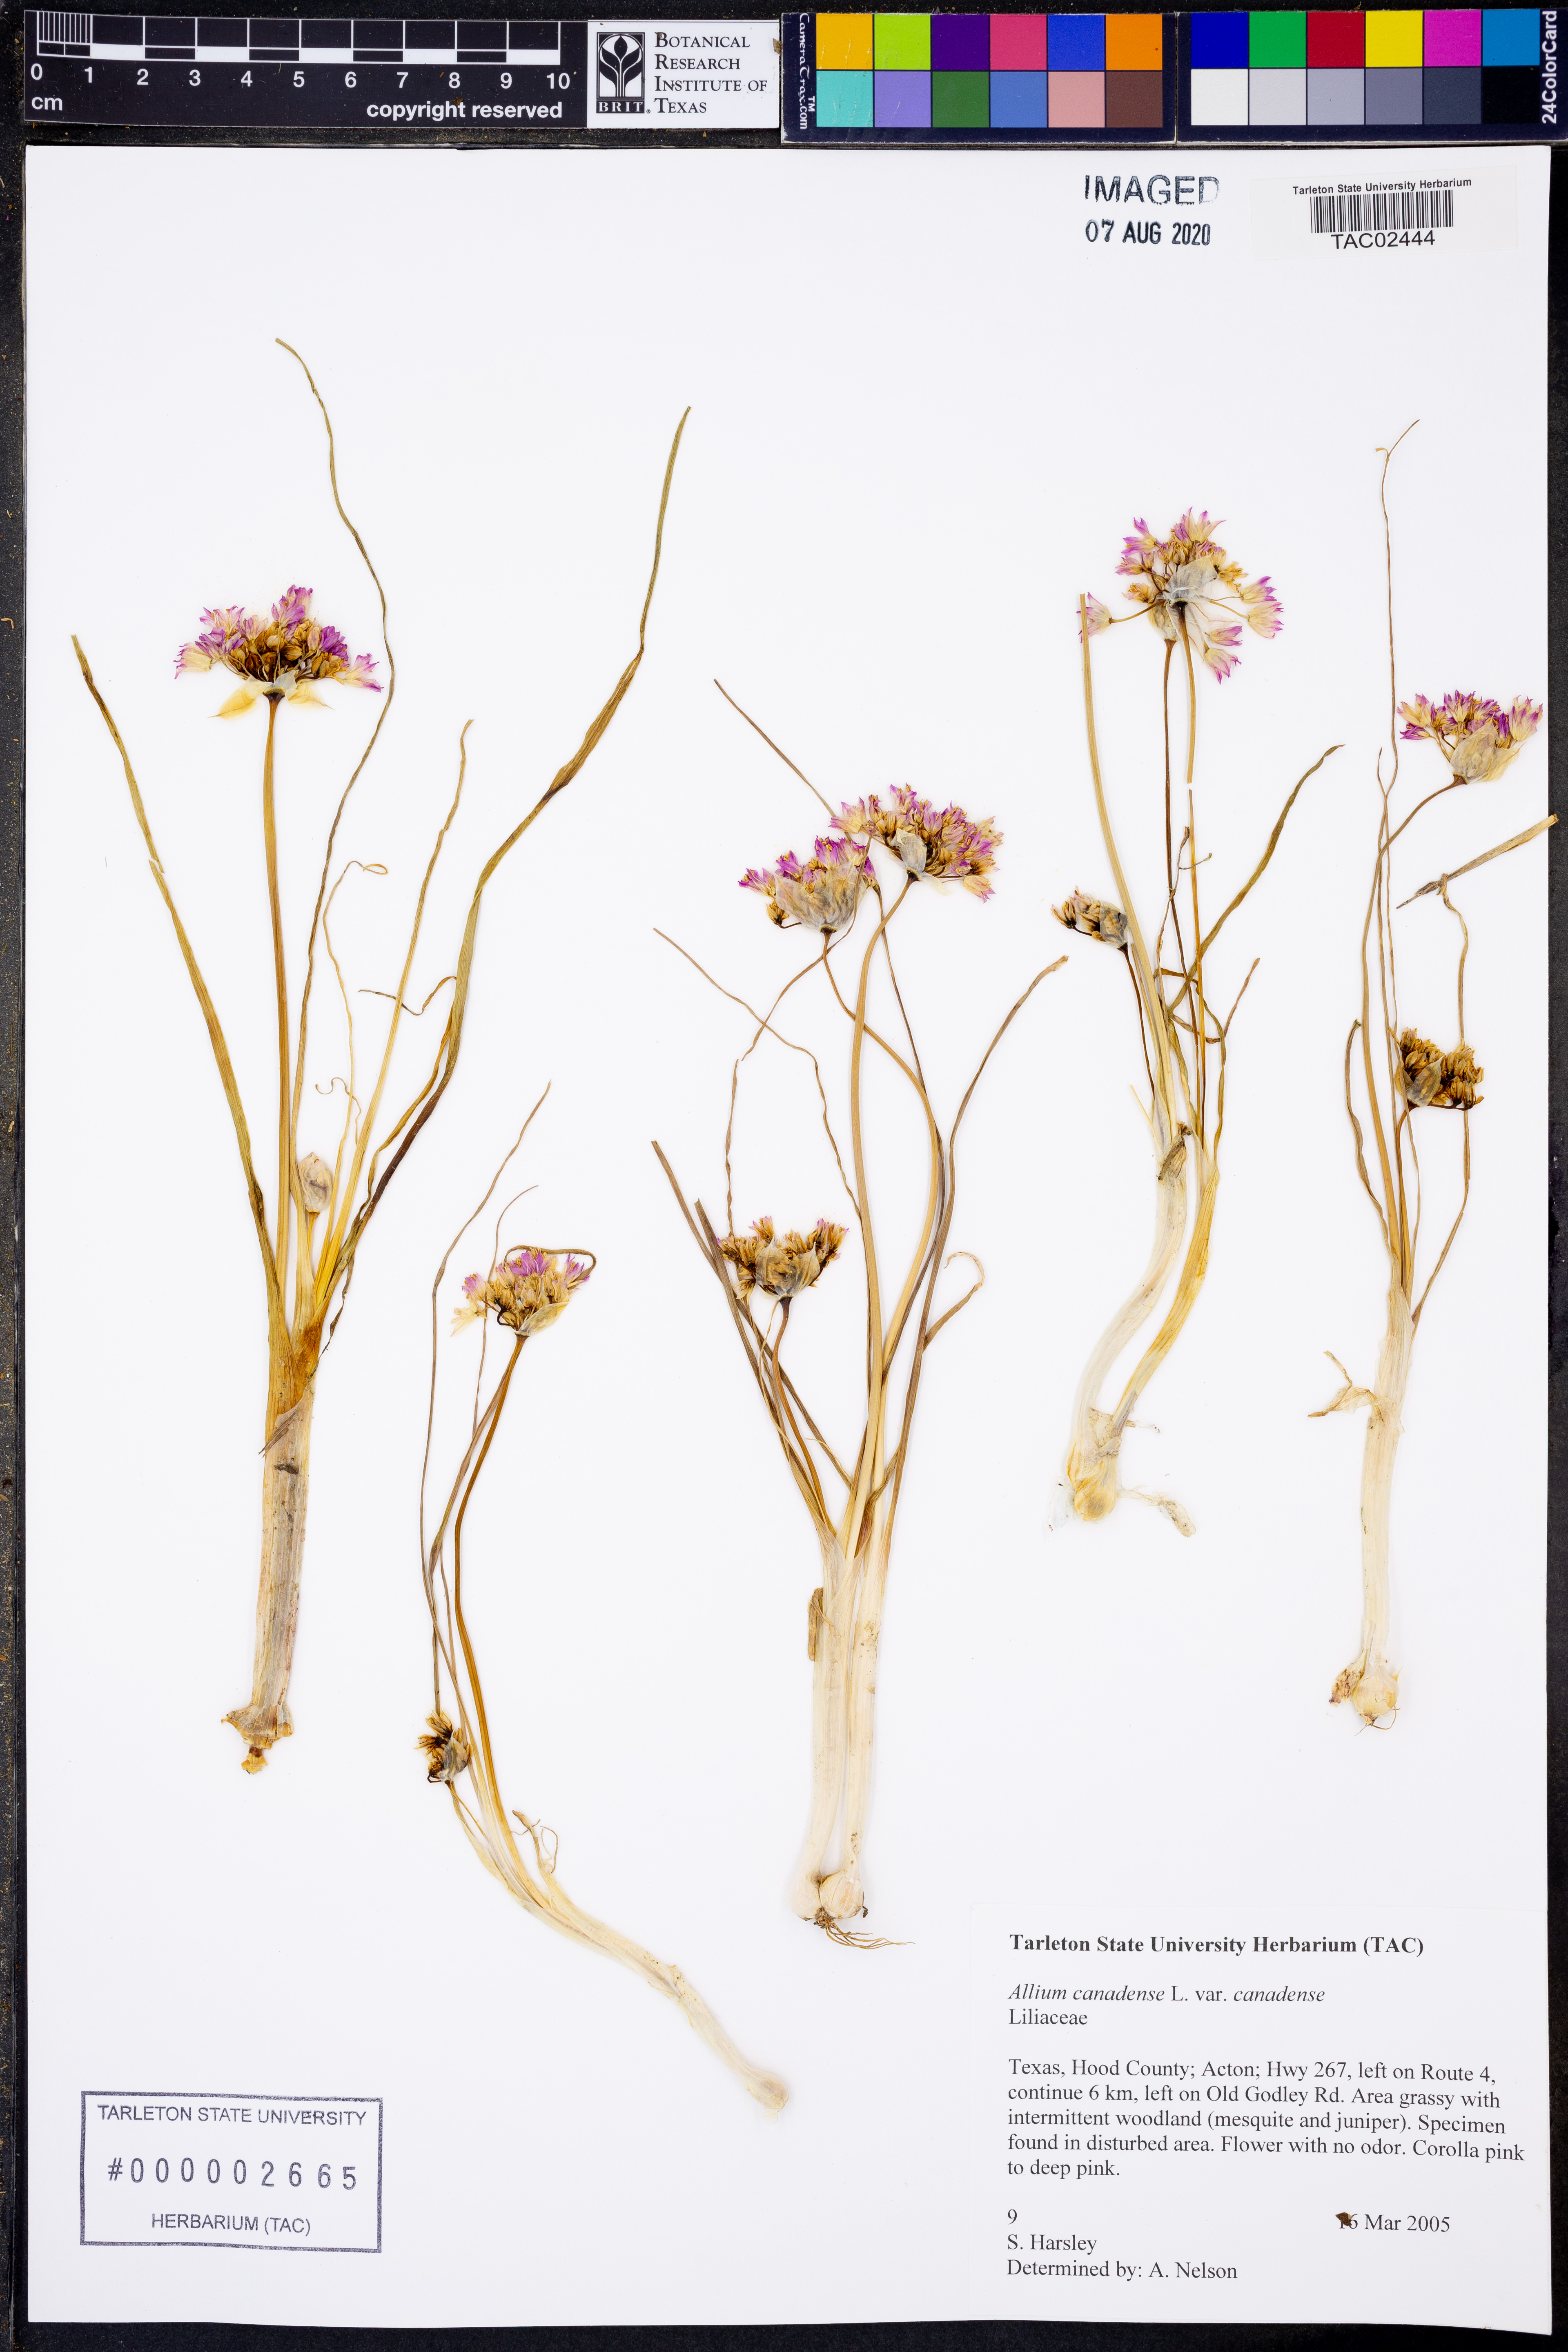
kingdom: Plantae
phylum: Tracheophyta
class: Liliopsida
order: Asparagales
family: Amaryllidaceae
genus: Allium
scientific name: Allium canadense
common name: Meadow garlic
